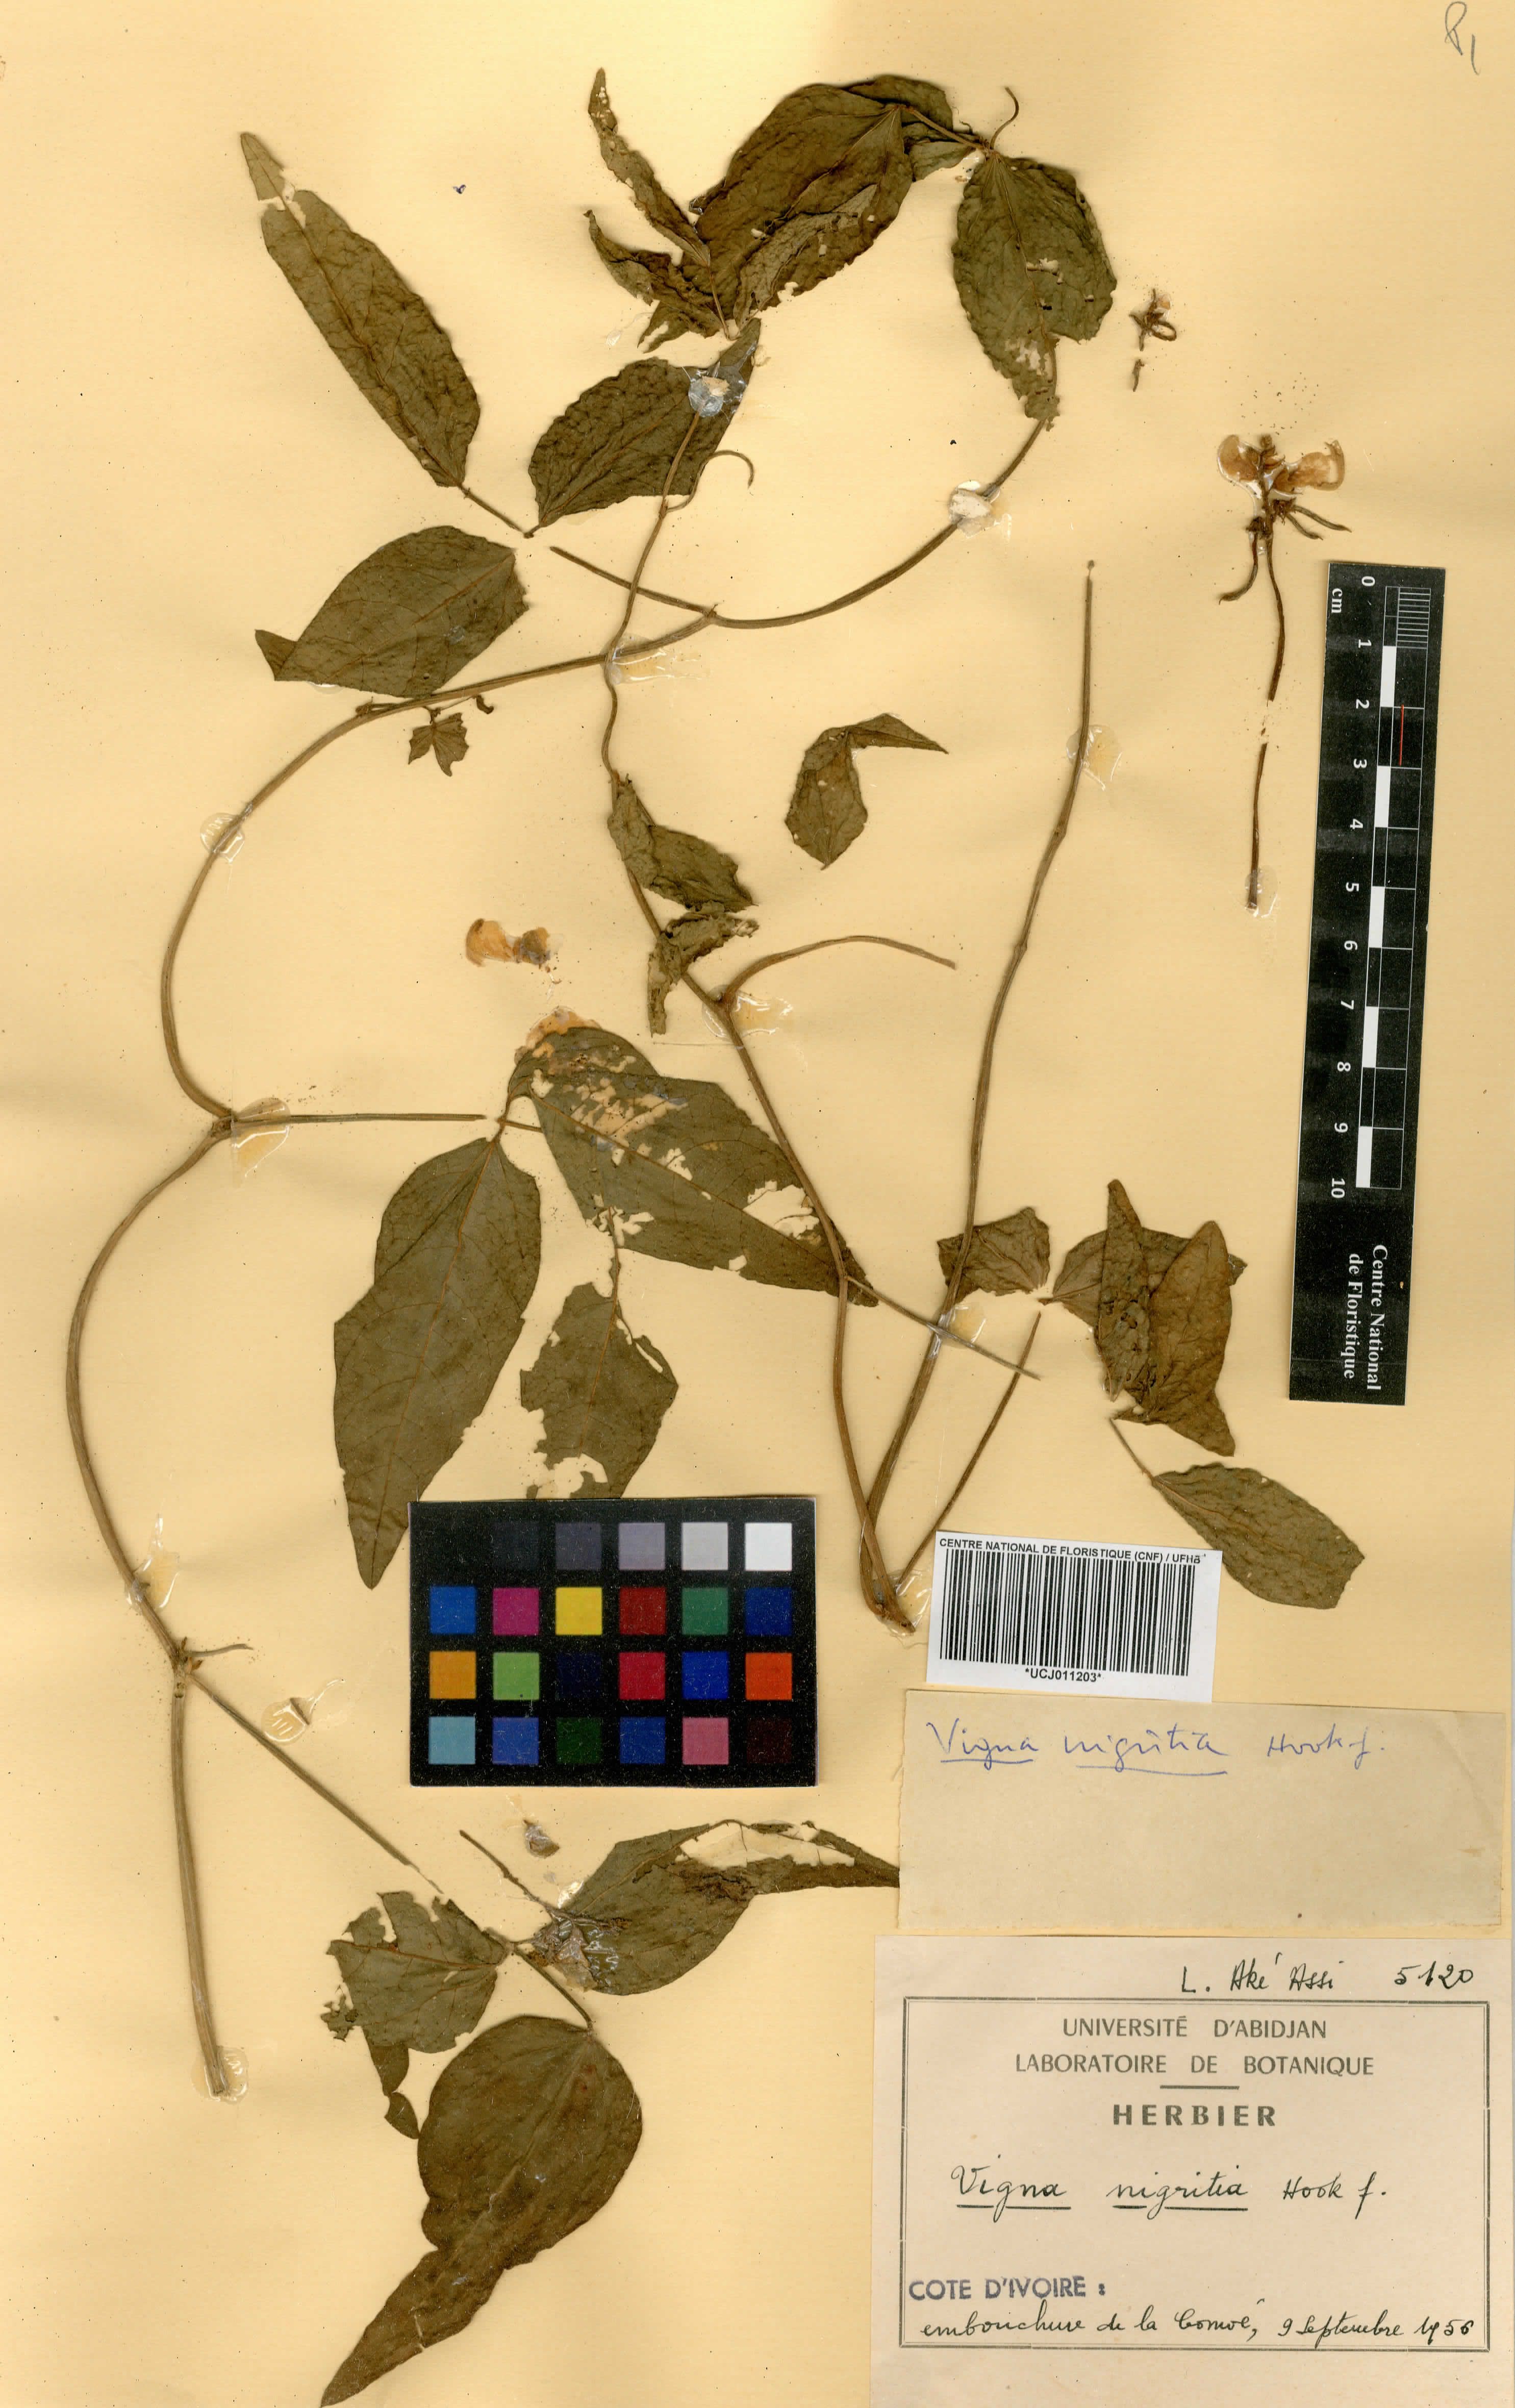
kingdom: Plantae
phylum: Tracheophyta
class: Magnoliopsida
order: Fabales
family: Fabaceae
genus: Vigna
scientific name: Vigna nigritia
